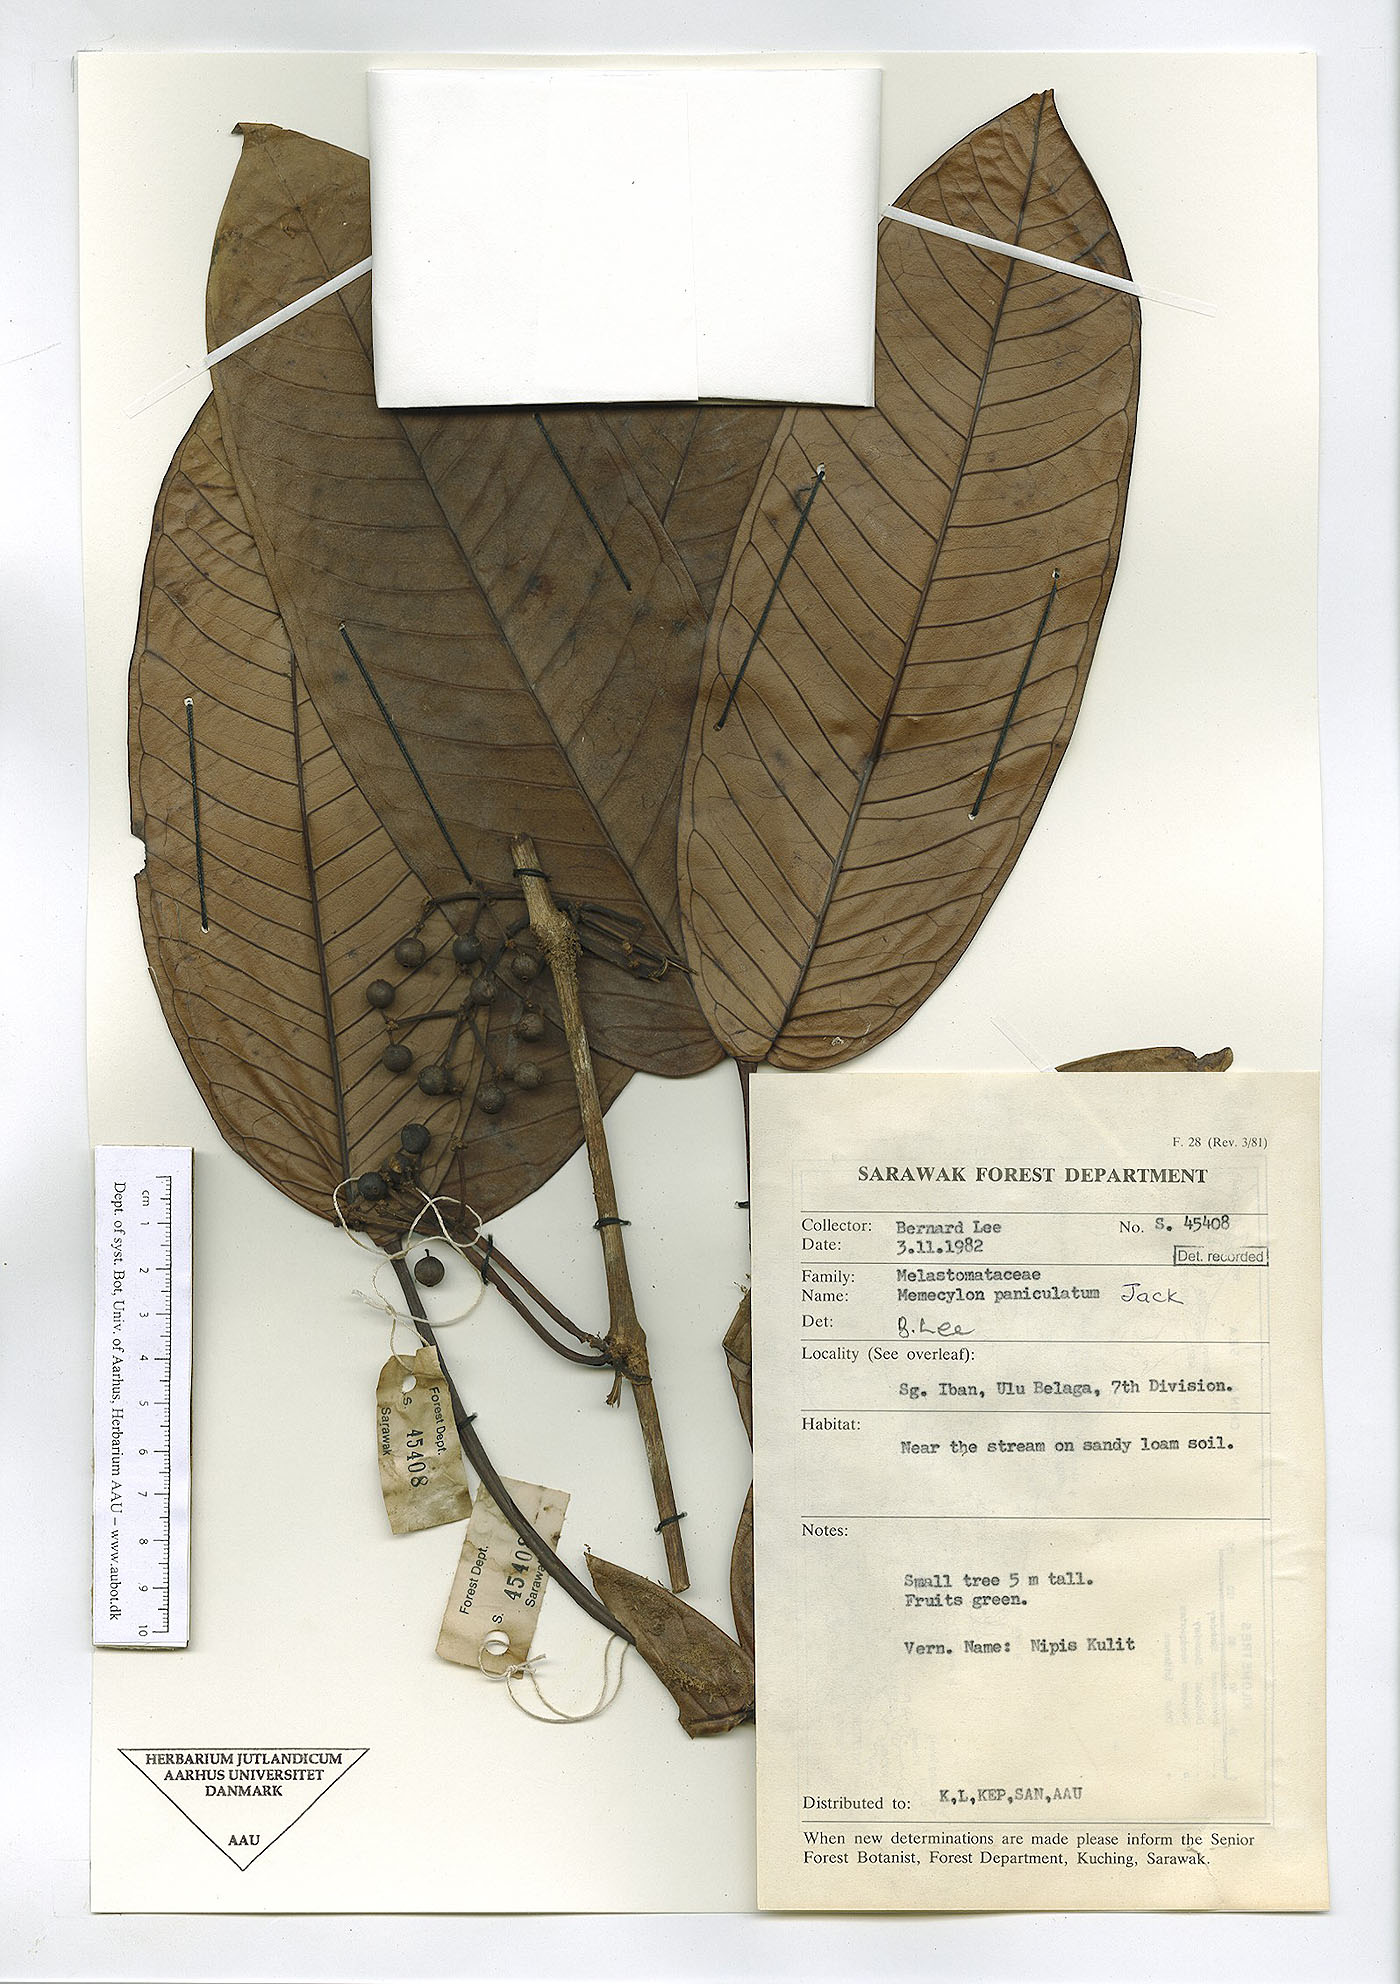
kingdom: Plantae
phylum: Tracheophyta
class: Magnoliopsida
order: Myrtales
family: Melastomataceae
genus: Memecylon
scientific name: Memecylon paniculatum
